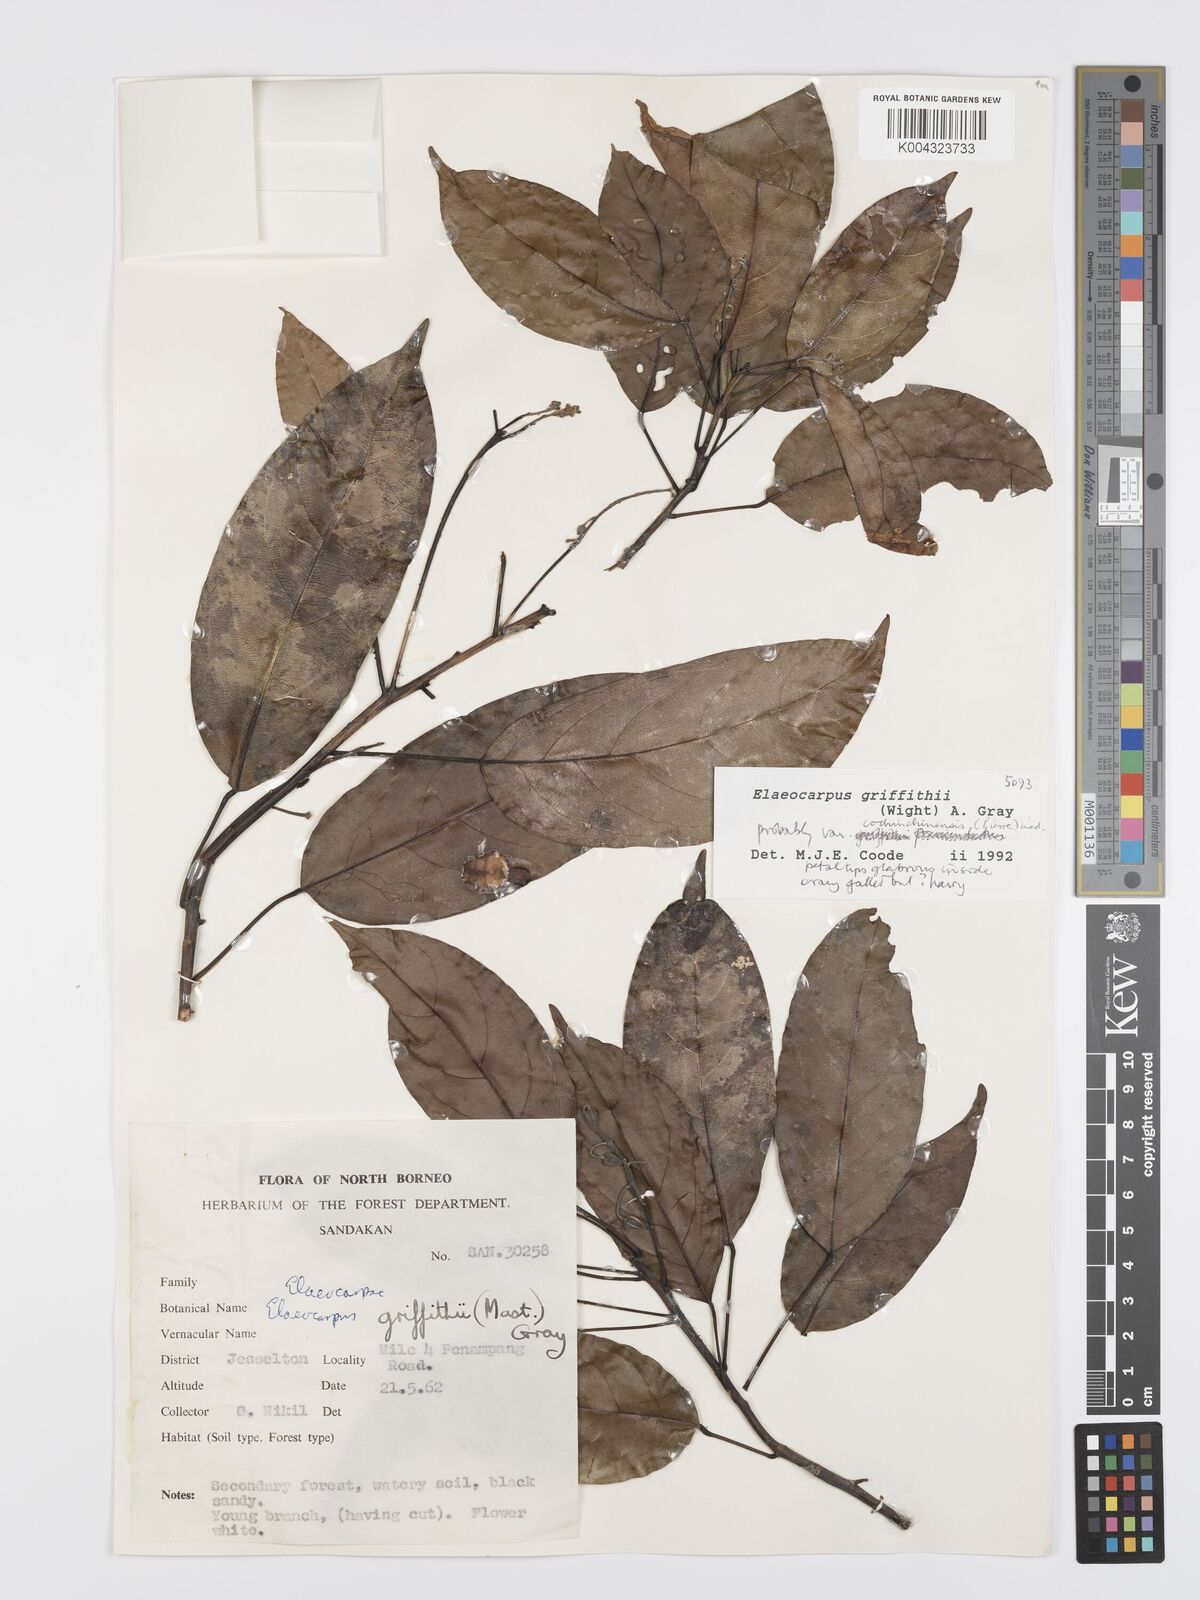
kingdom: Plantae
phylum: Tracheophyta
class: Magnoliopsida
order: Oxalidales
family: Elaeocarpaceae
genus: Elaeocarpus
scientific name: Elaeocarpus griffithii
